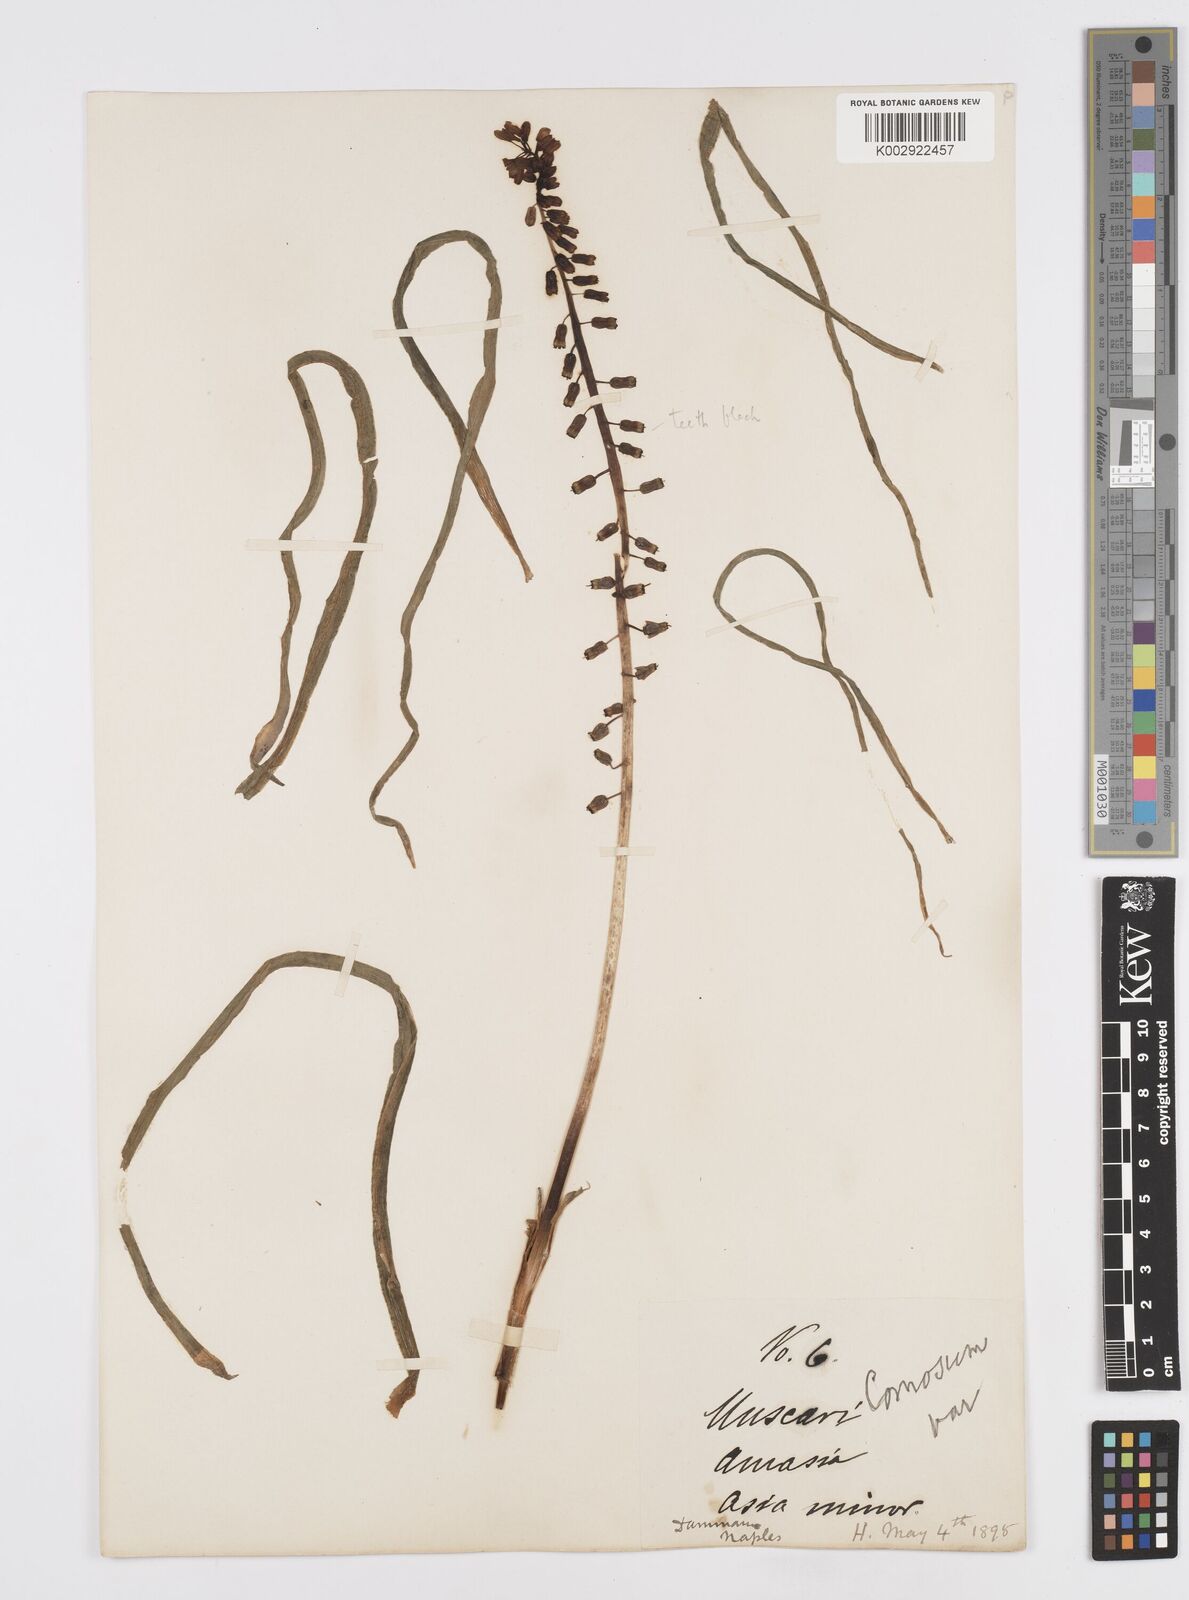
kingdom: Plantae
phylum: Tracheophyta
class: Liliopsida
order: Asparagales
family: Asparagaceae
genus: Muscari
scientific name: Muscari tenuiflorum
